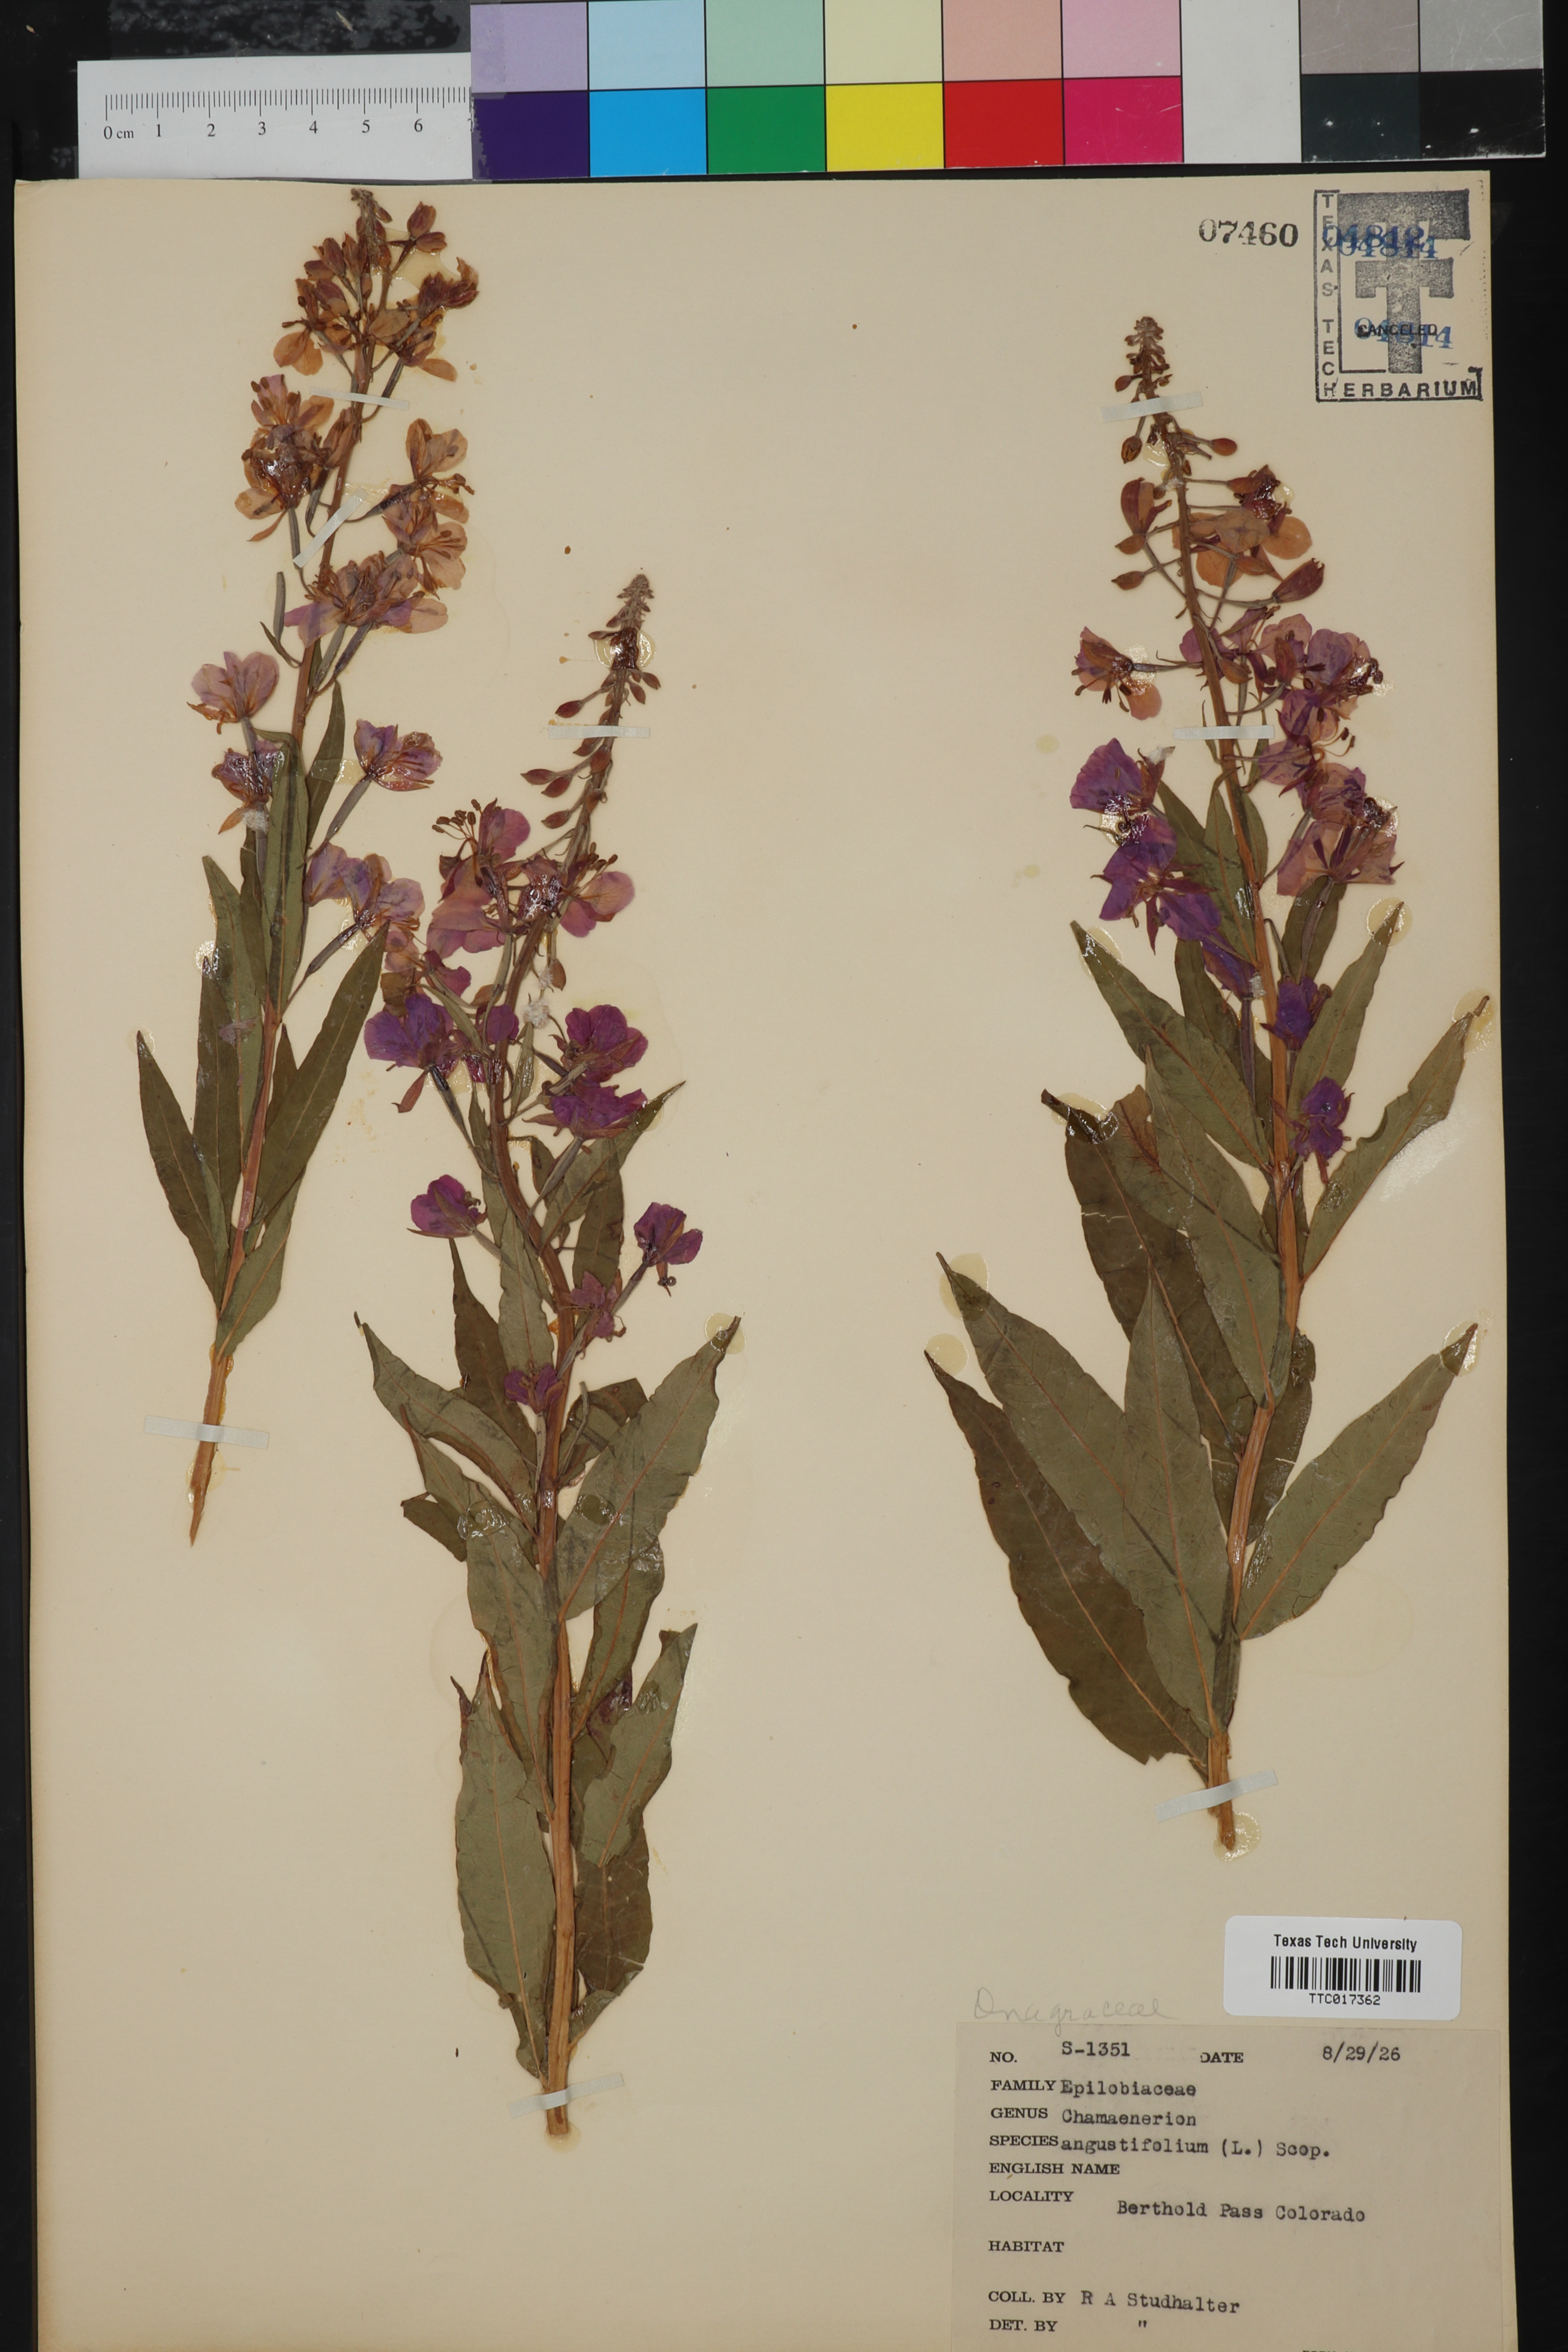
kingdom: Plantae
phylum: Tracheophyta
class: Magnoliopsida
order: Myrtales
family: Onagraceae
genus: Chamaenerion
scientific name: Chamaenerion angustifolium
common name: Fireweed
